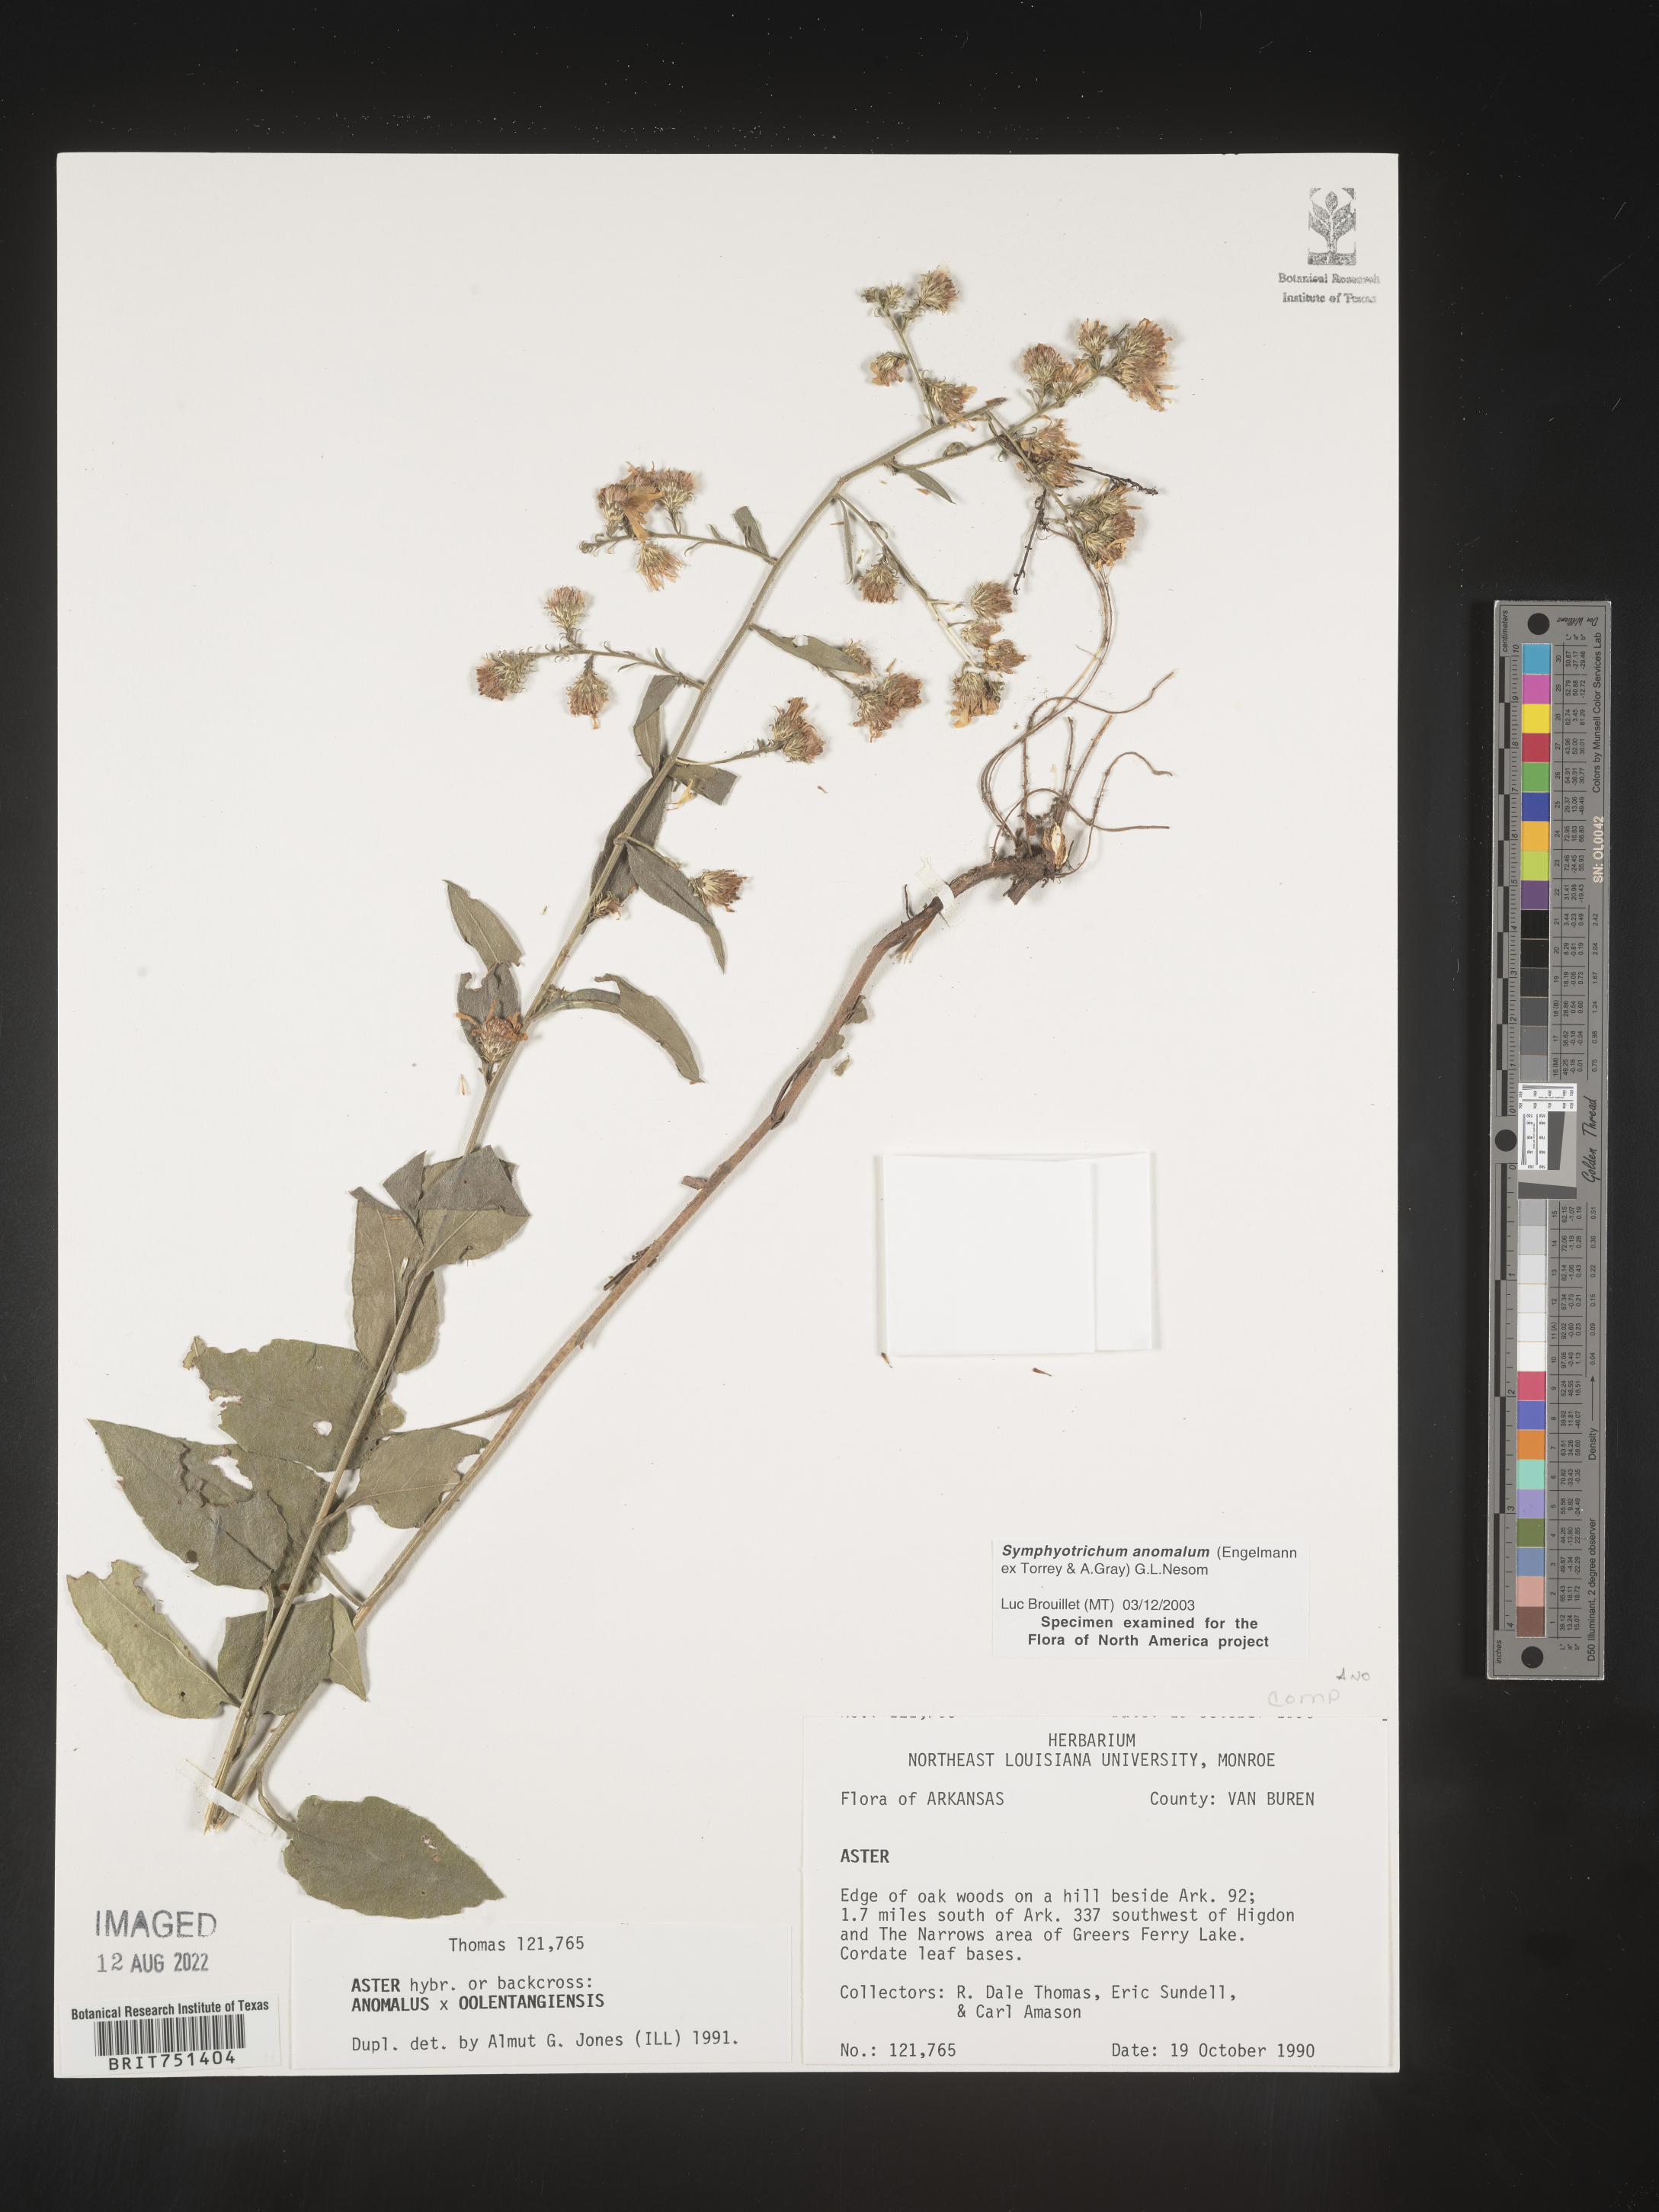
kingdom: Plantae
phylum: Tracheophyta
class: Magnoliopsida
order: Asterales
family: Asteraceae
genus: Symphyotrichum
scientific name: Symphyotrichum anomalum
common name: Many-ray aster
